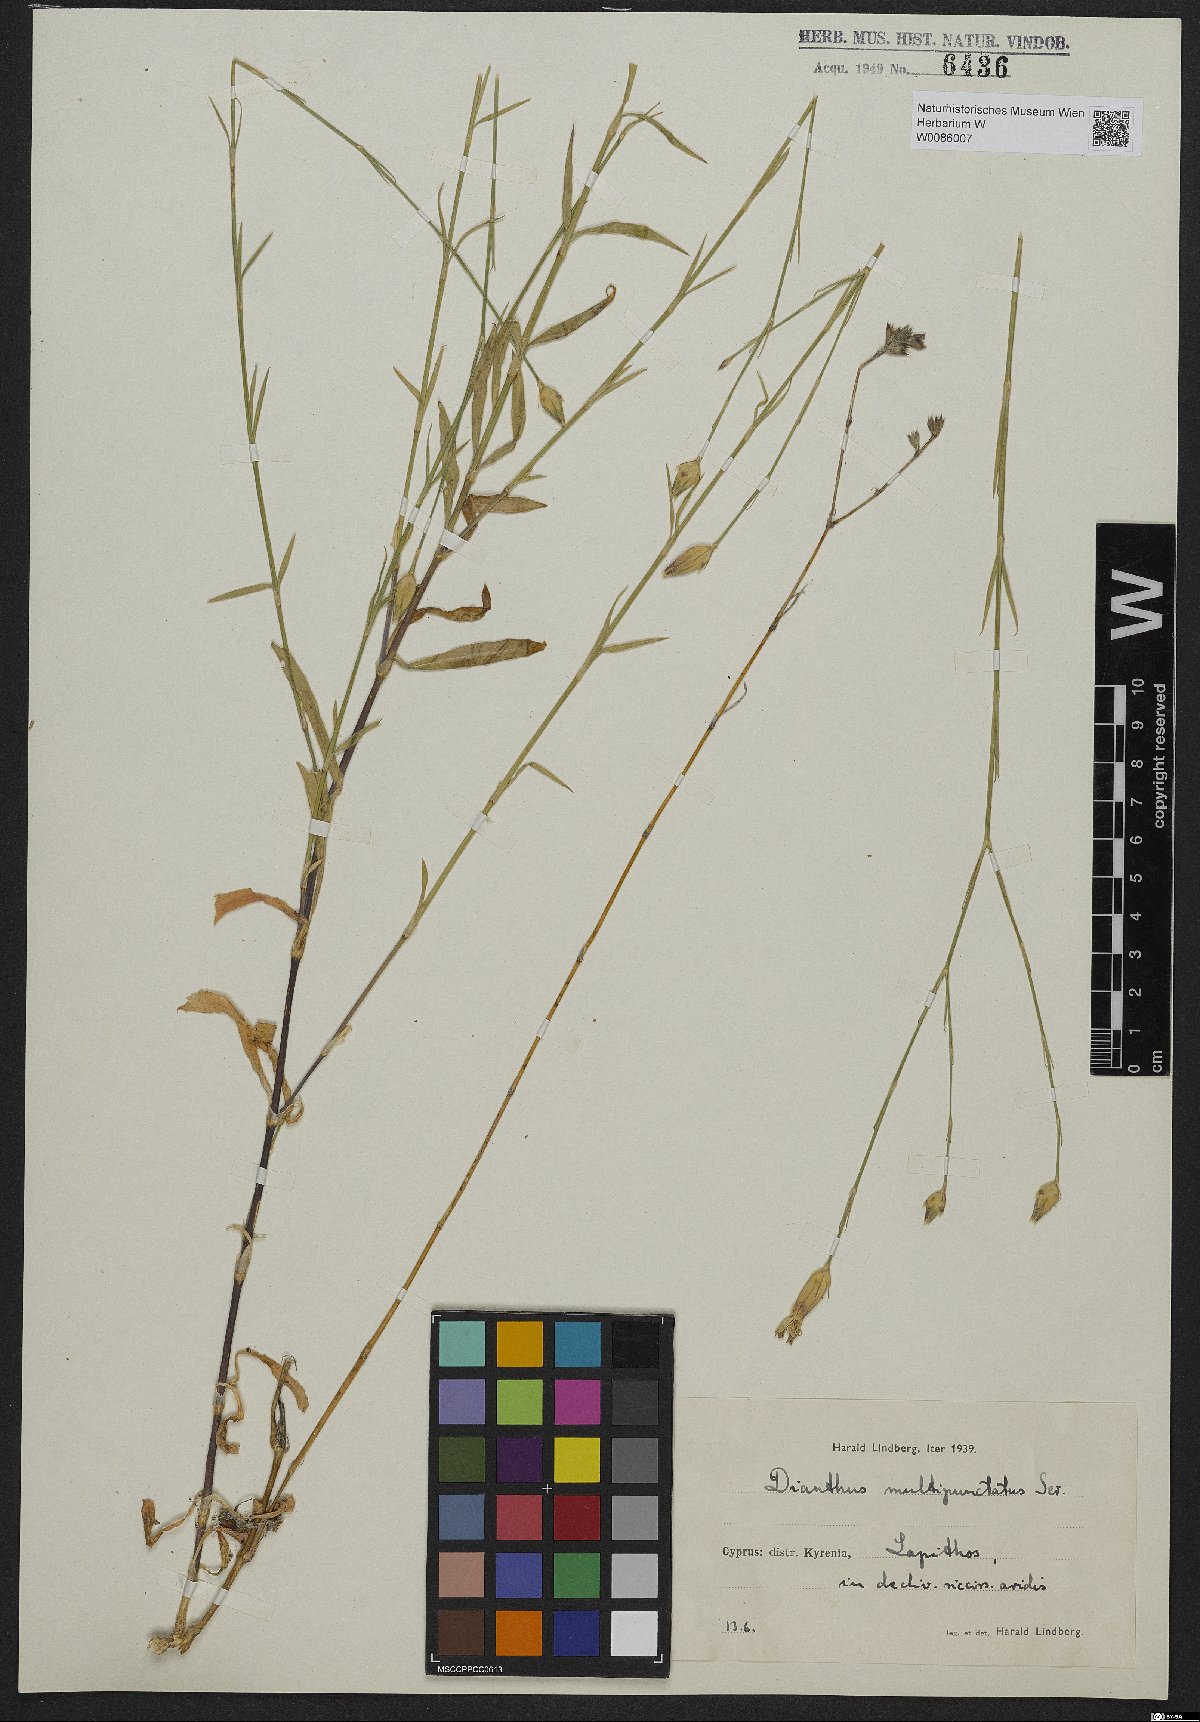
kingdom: Plantae
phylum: Tracheophyta
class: Magnoliopsida
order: Caryophyllales
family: Caryophyllaceae
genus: Dianthus
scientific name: Dianthus strictus
